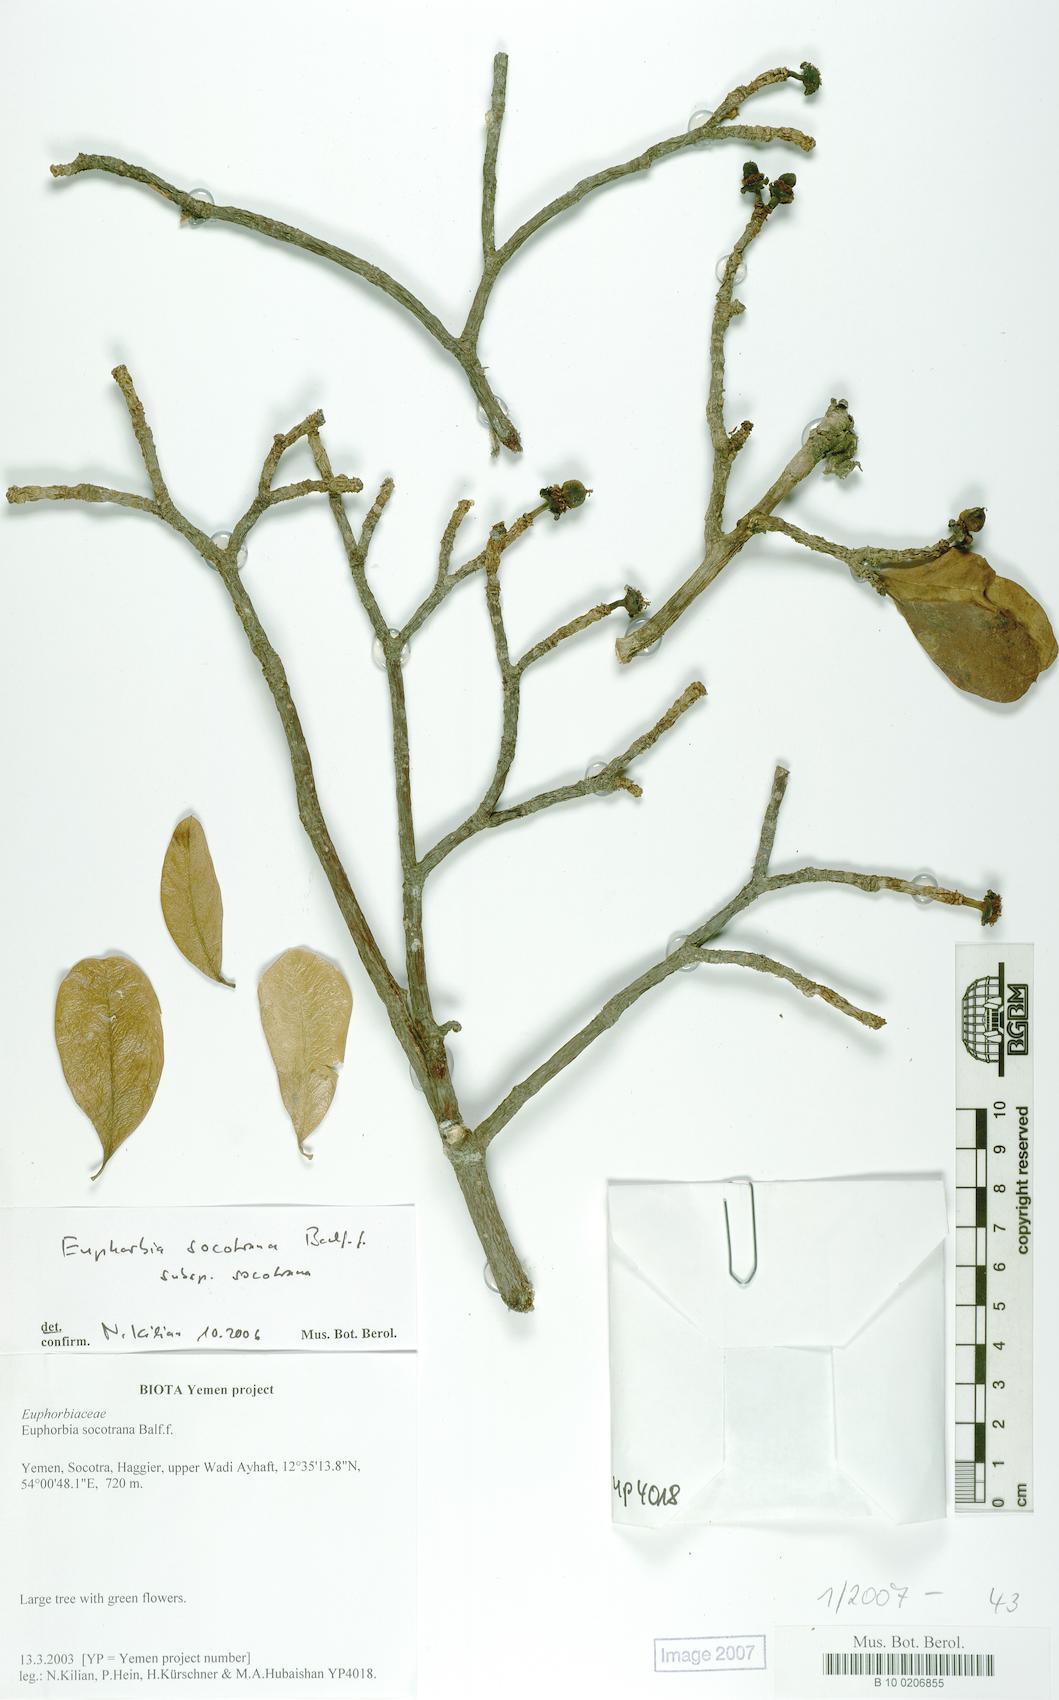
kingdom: Plantae
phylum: Tracheophyta
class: Magnoliopsida
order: Malpighiales
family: Euphorbiaceae
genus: Euphorbia
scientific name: Euphorbia socotrana
